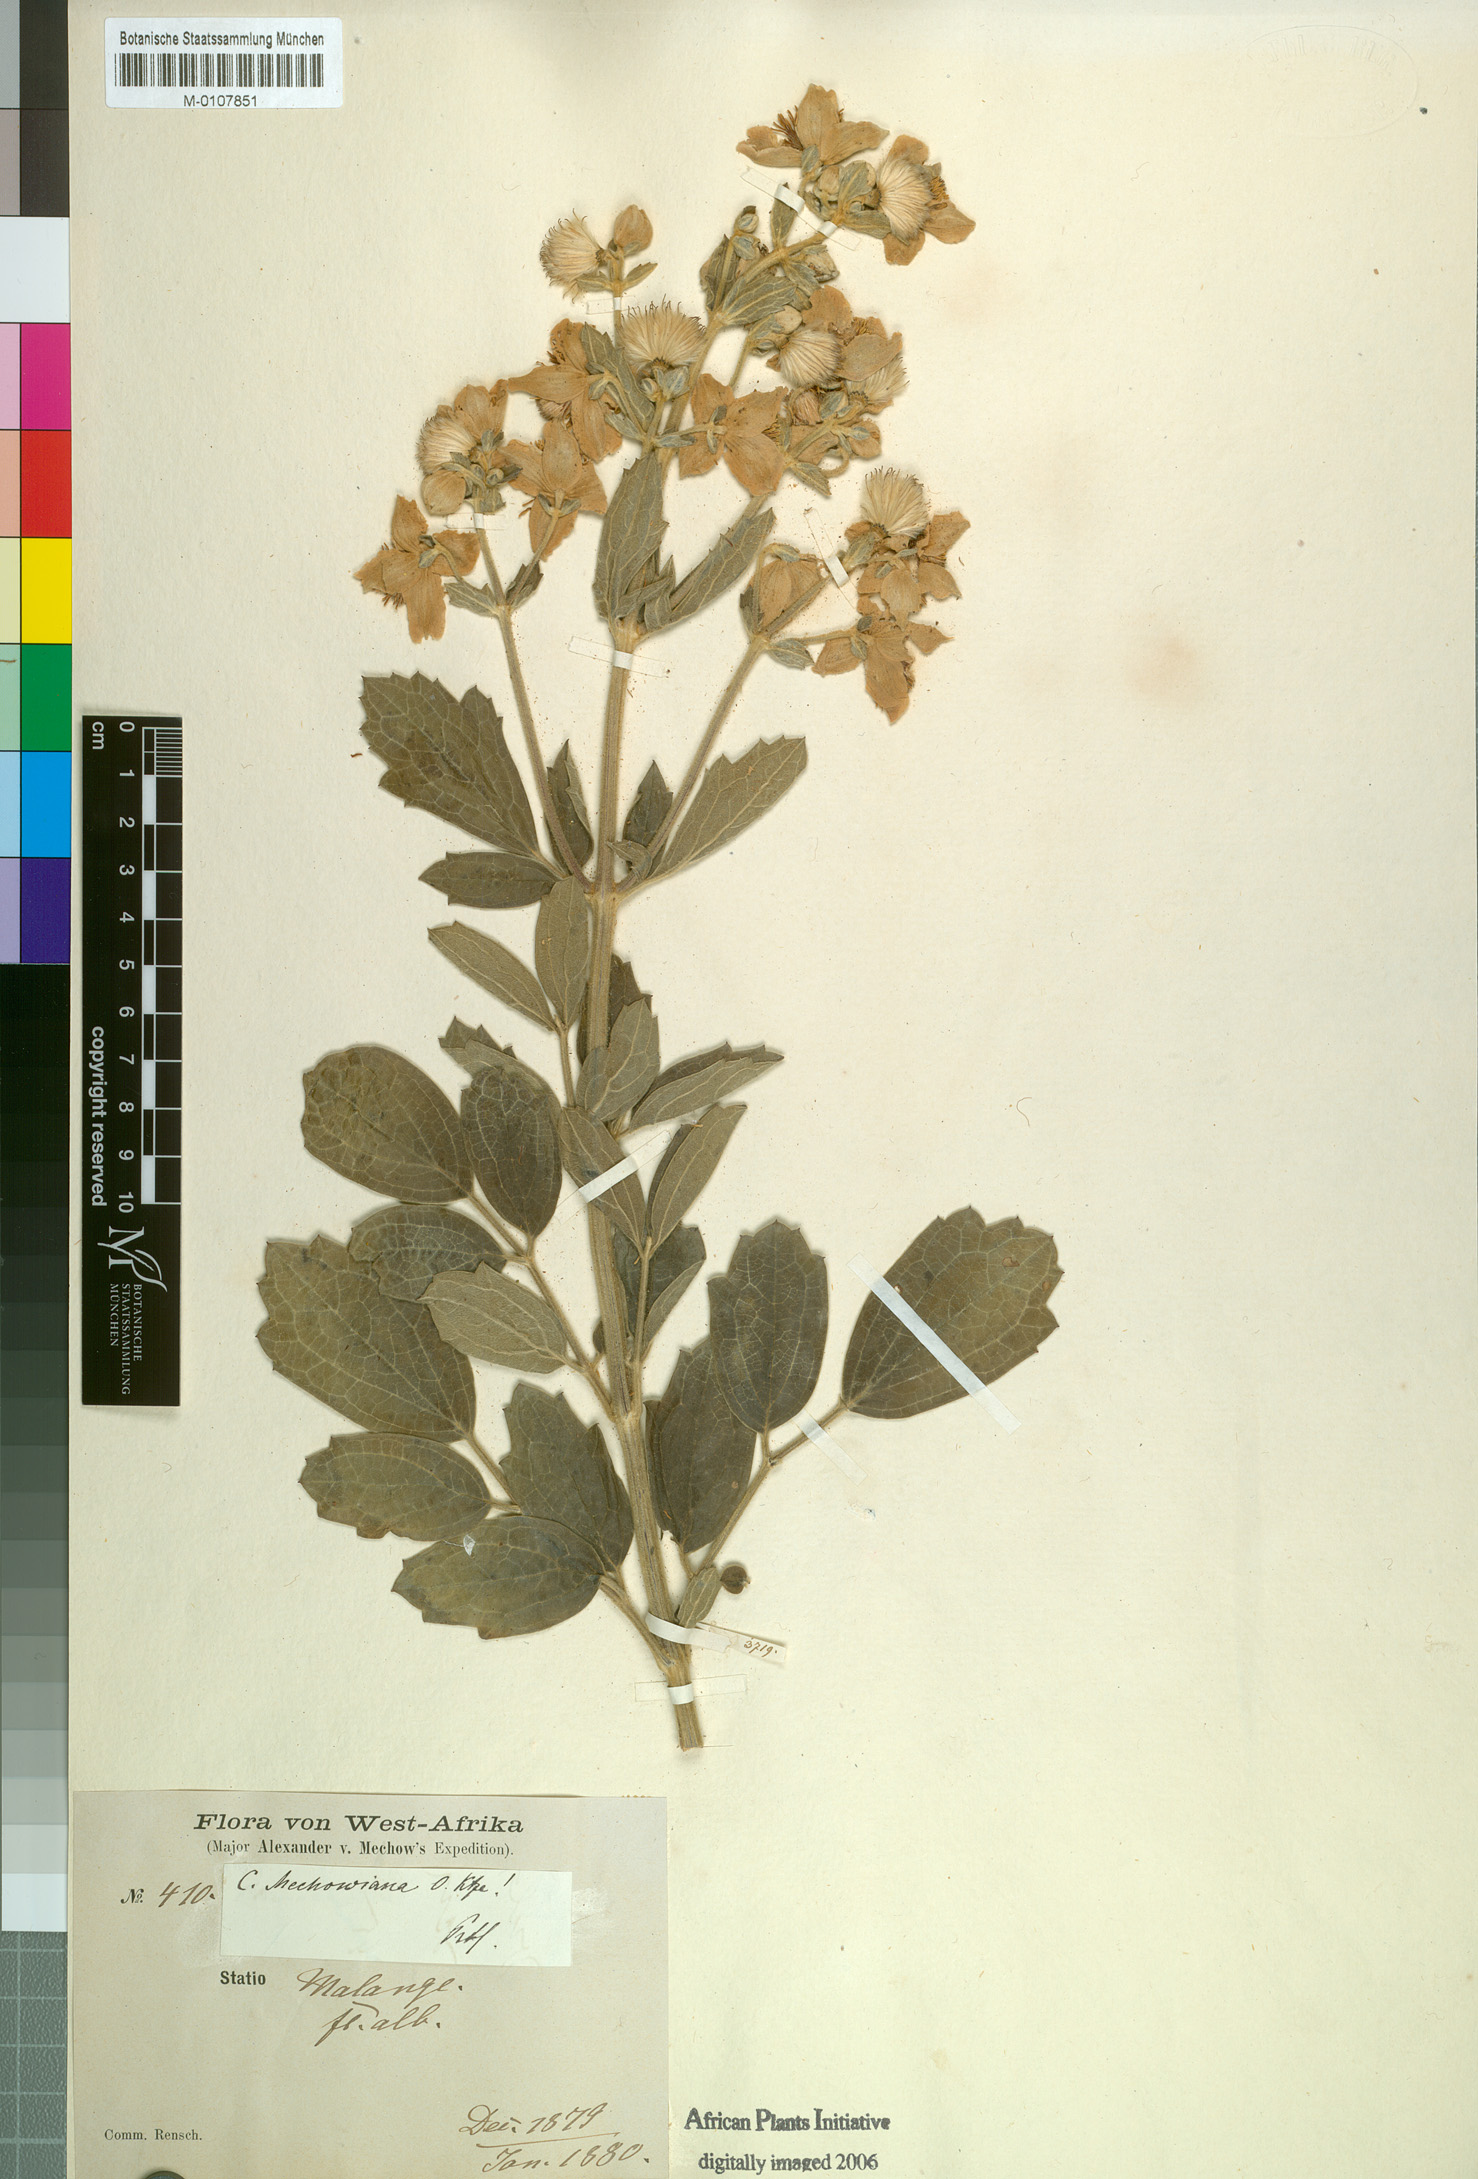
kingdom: Plantae
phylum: Tracheophyta
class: Magnoliopsida
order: Ranunculales
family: Ranunculaceae
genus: Clematis
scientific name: Clematis villosa
